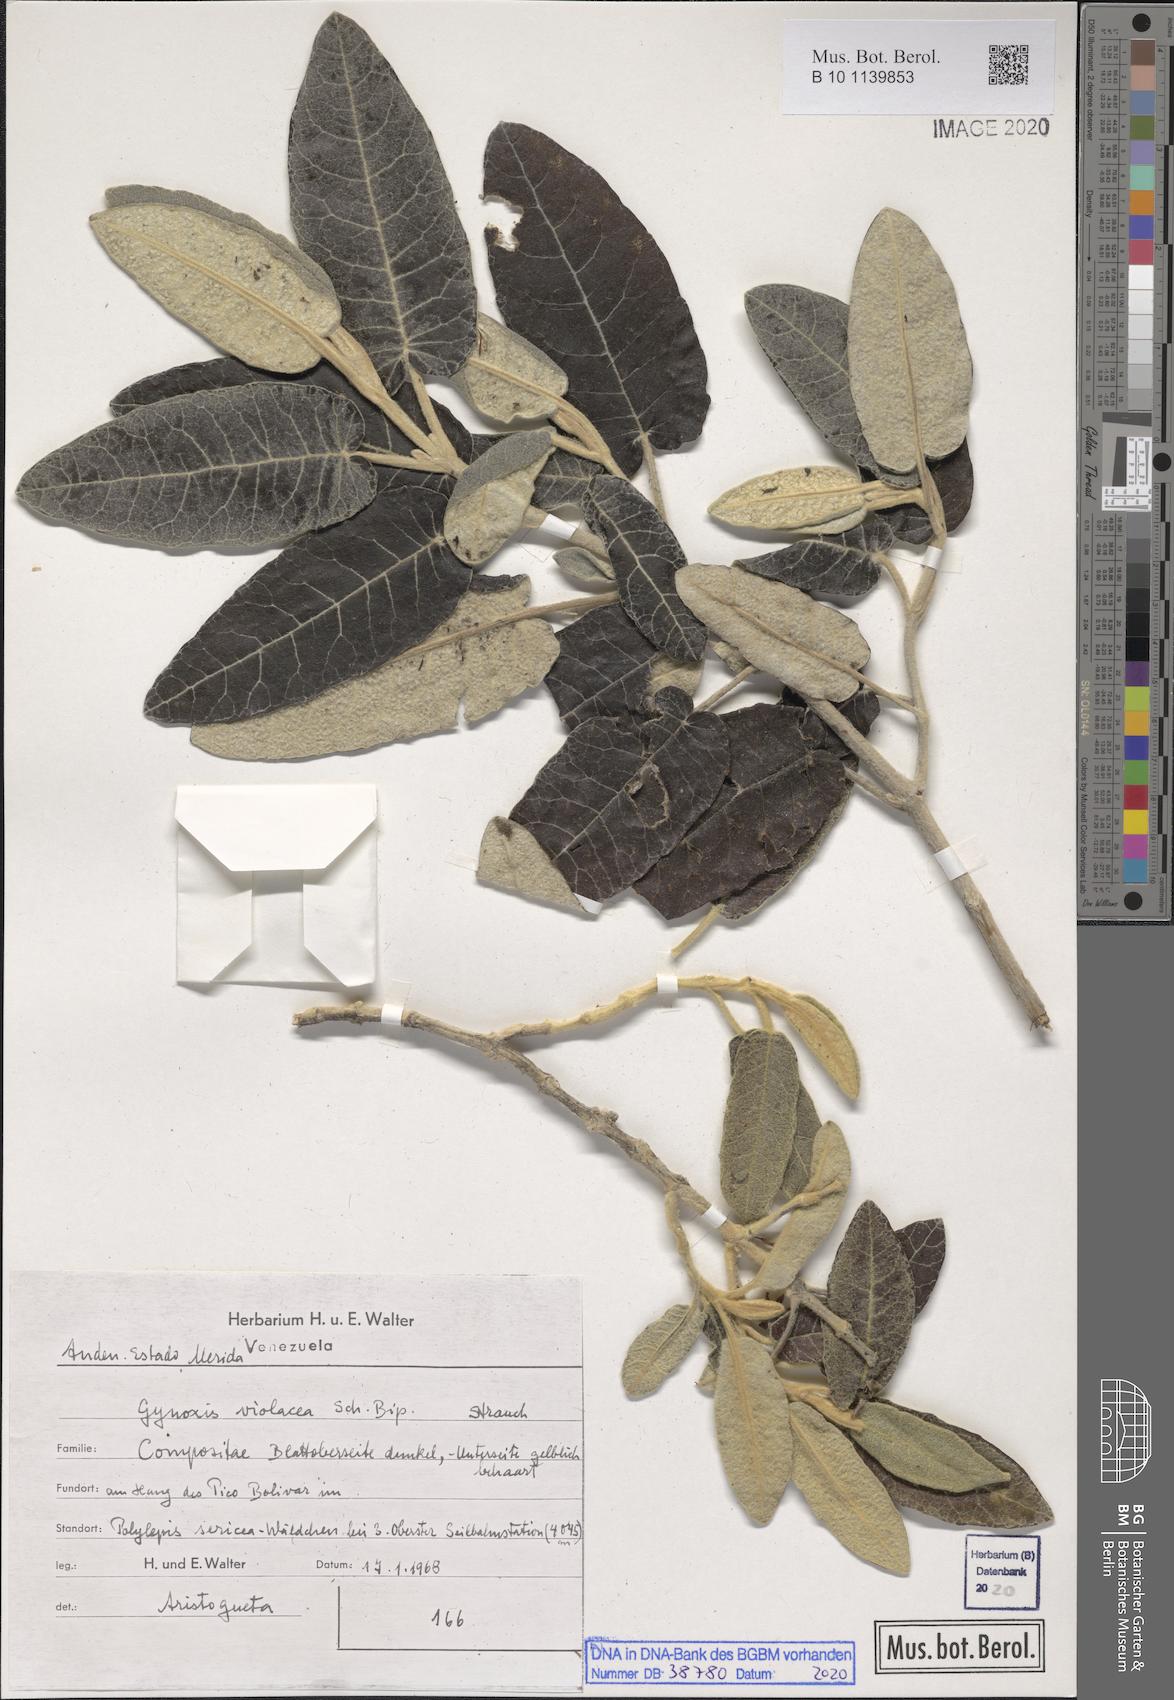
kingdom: Plantae
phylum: Tracheophyta
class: Magnoliopsida
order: Asterales
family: Asteraceae
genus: Gynoxys
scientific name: Gynoxys violacea
